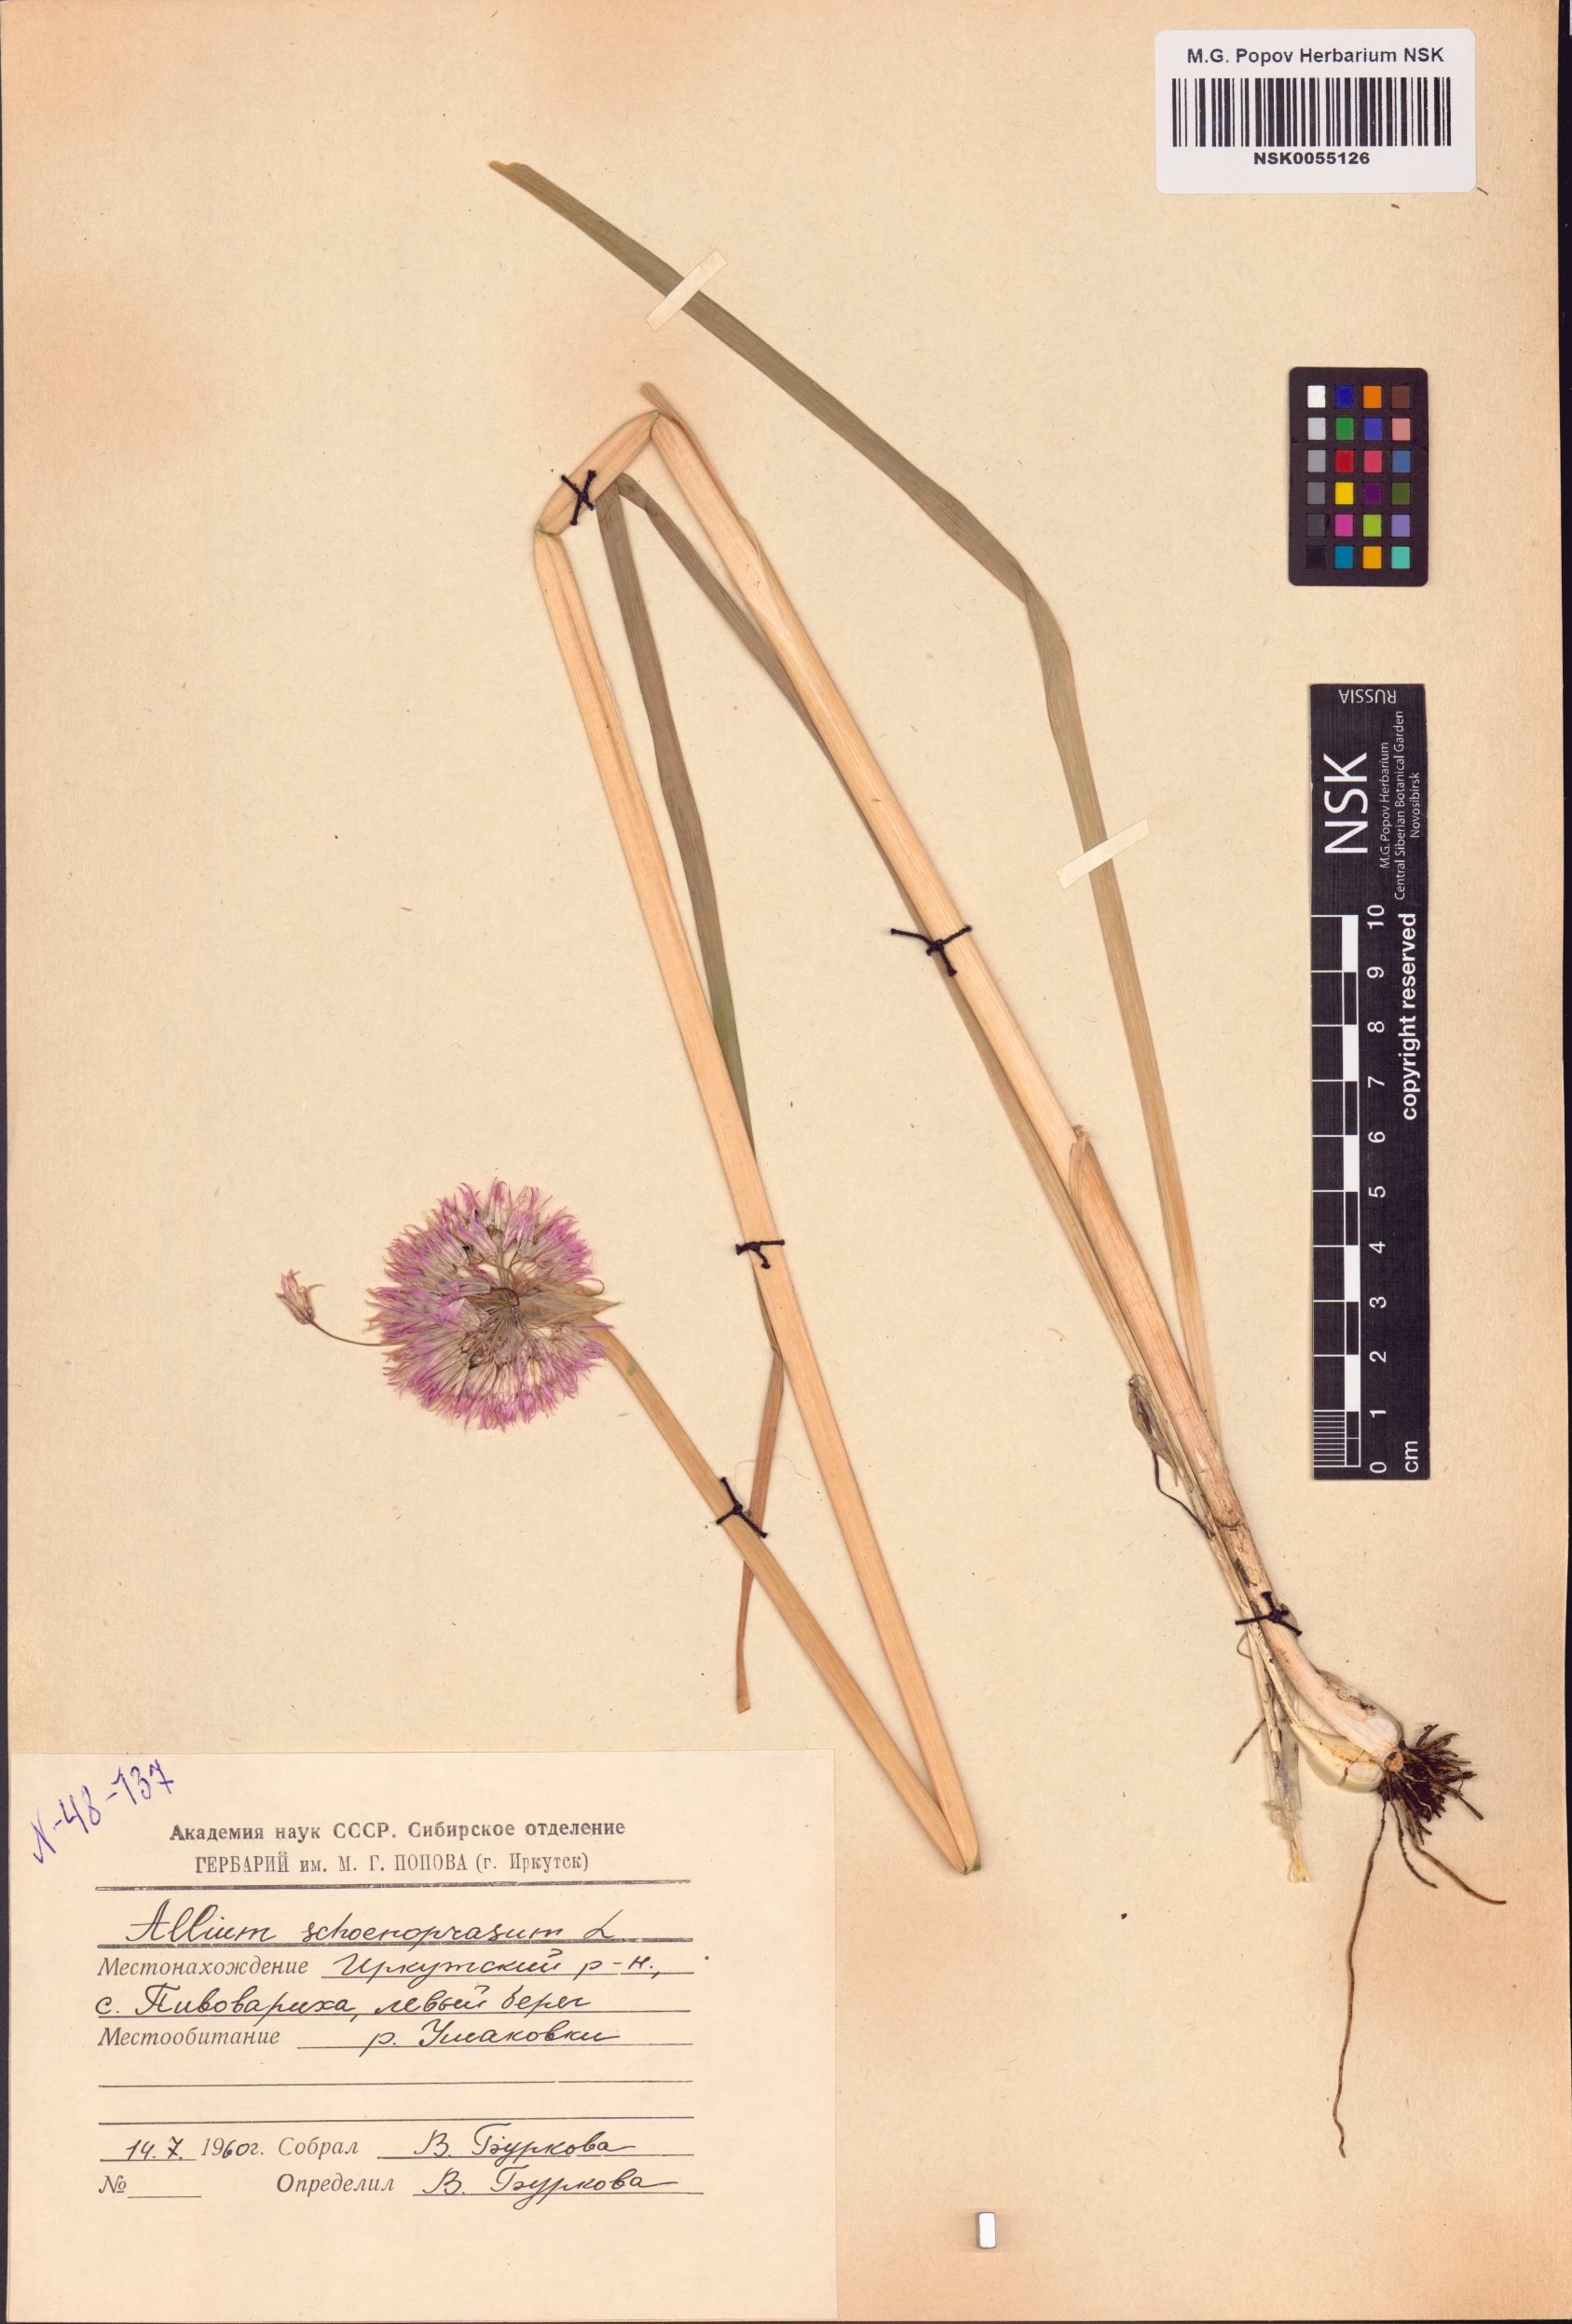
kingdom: Plantae
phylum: Tracheophyta
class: Liliopsida
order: Asparagales
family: Amaryllidaceae
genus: Allium
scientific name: Allium schoenoprasum
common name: Chives
